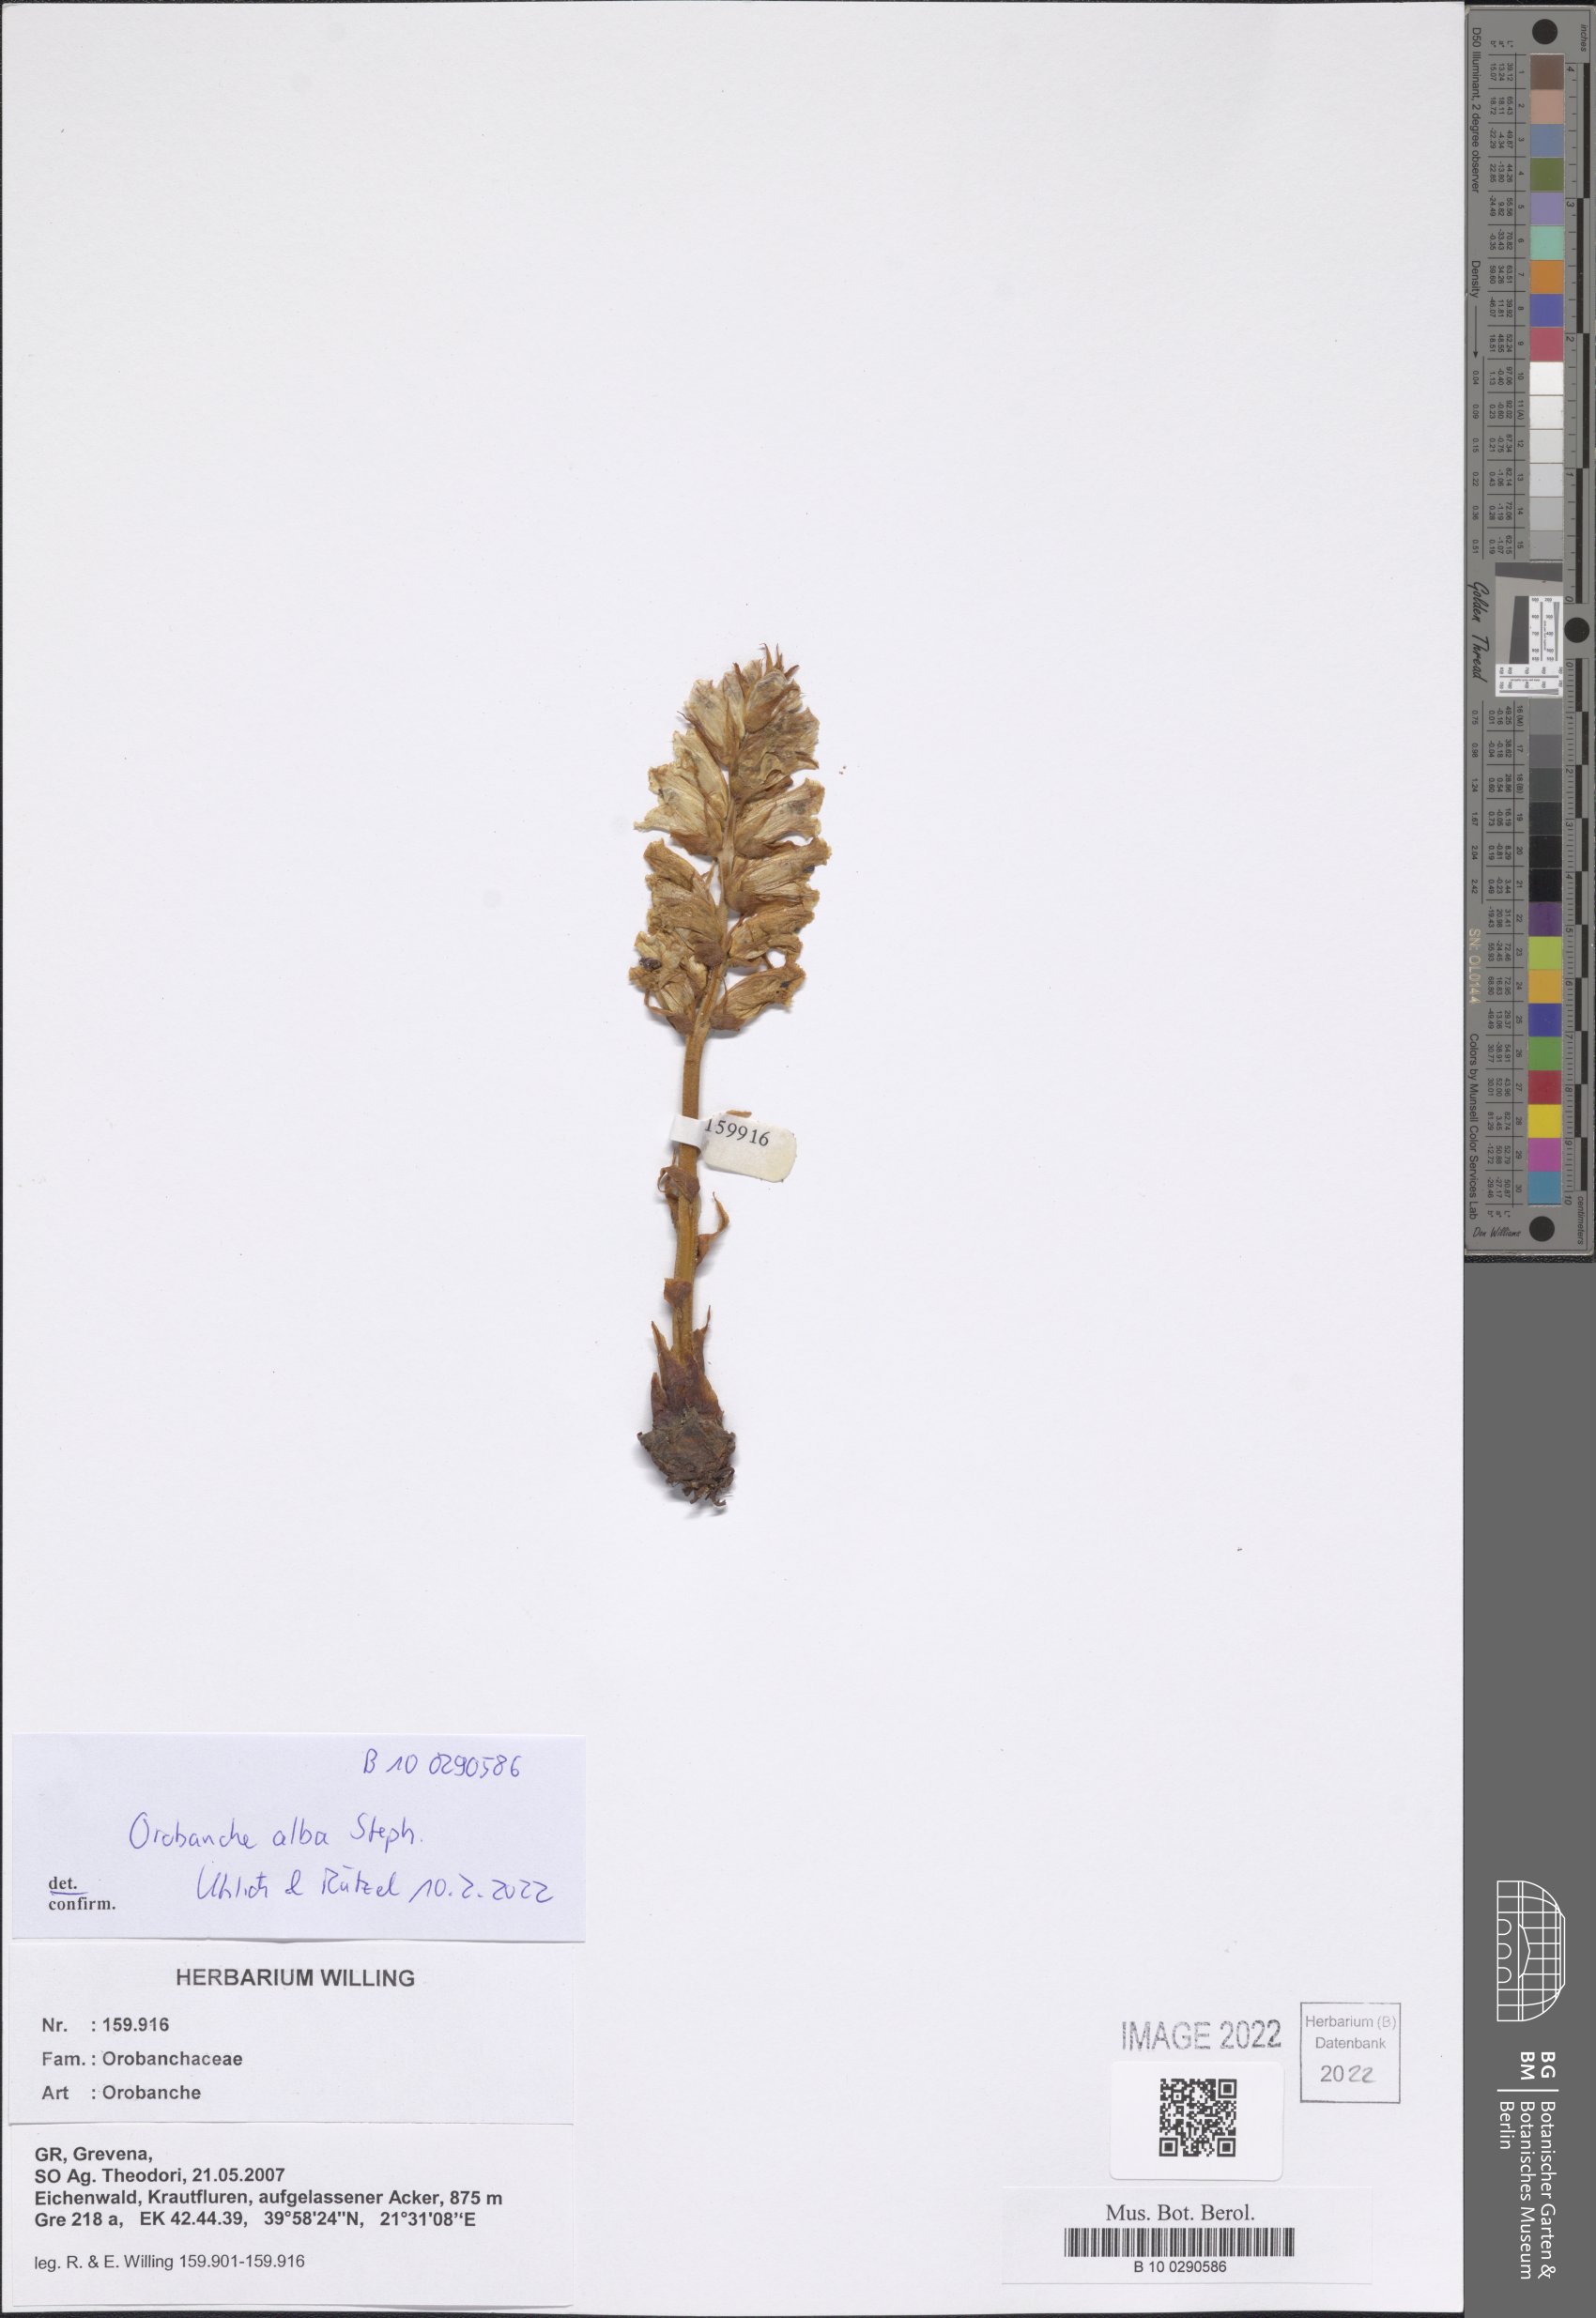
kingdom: Plantae
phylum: Tracheophyta
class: Magnoliopsida
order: Lamiales
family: Orobanchaceae
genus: Orobanche
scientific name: Orobanche alba
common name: Thyme broomrape
